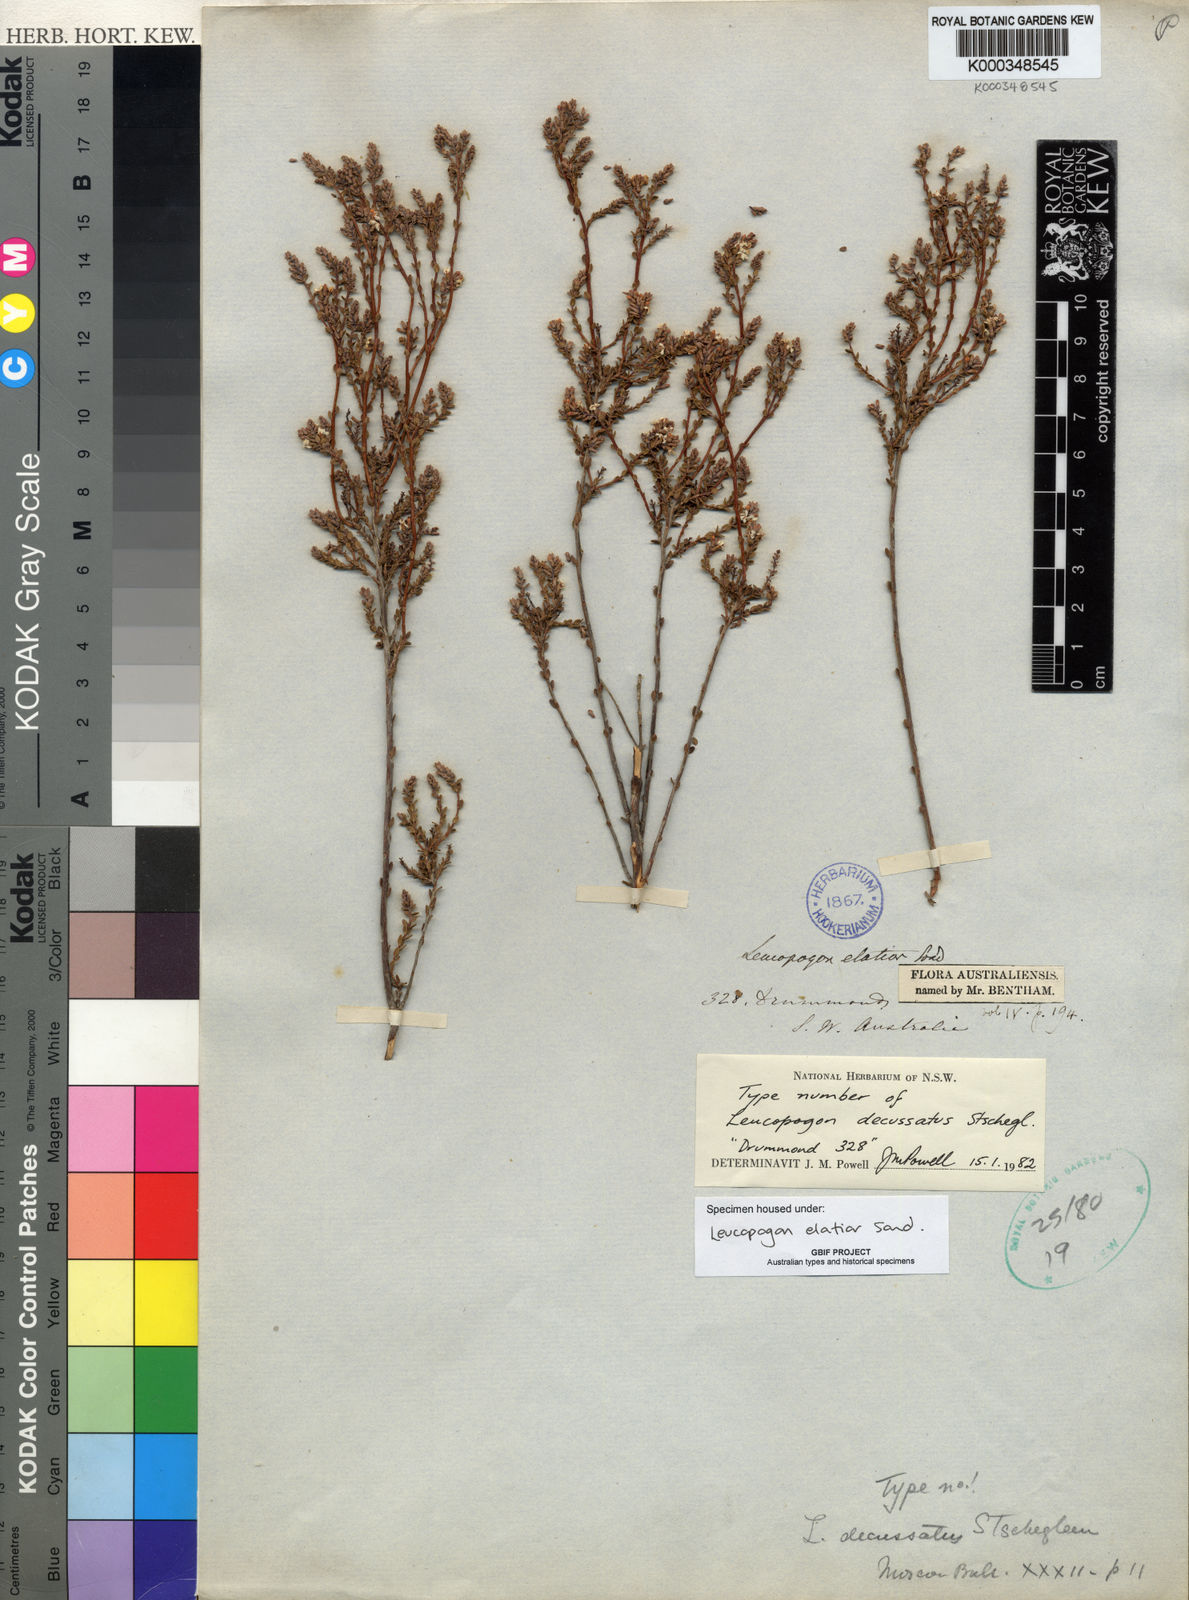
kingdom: Plantae
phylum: Tracheophyta
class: Magnoliopsida
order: Ericales
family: Ericaceae
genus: Leucopogon
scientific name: Leucopogon elatior
